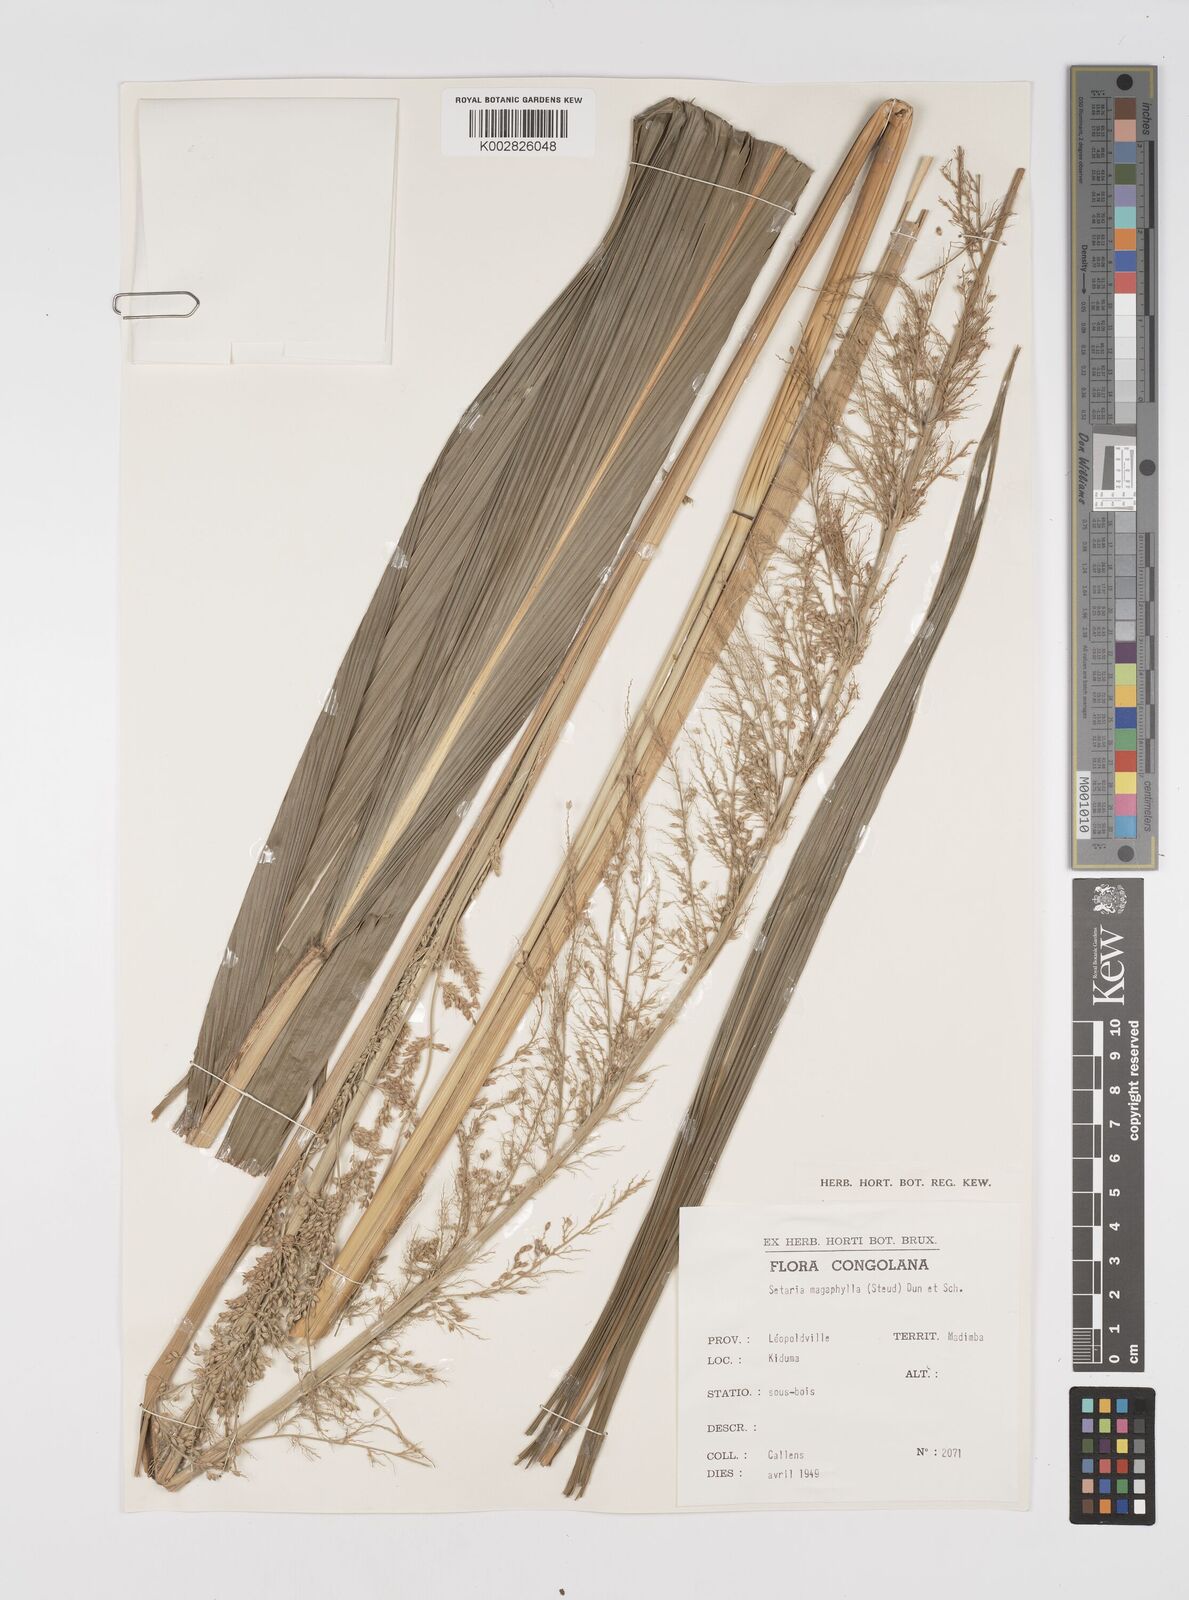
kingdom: Plantae
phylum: Tracheophyta
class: Liliopsida
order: Poales
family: Poaceae
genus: Setaria
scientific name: Setaria megaphylla
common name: Bigleaf bristlegrass
